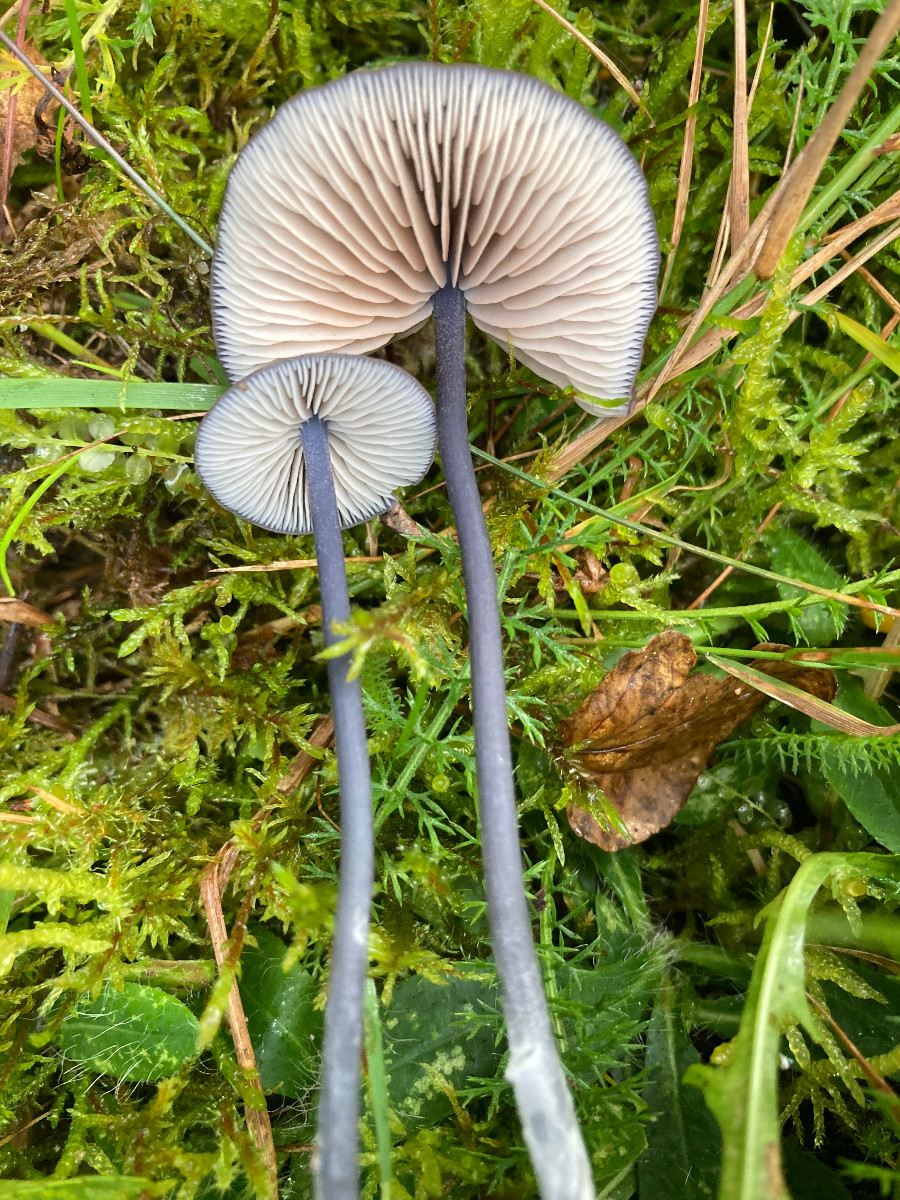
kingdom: Fungi
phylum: Basidiomycota
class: Agaricomycetes
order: Agaricales
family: Entolomataceae
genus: Entoloma
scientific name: Entoloma
